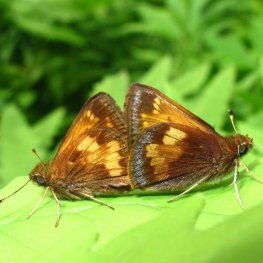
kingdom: Animalia
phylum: Arthropoda
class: Insecta
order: Lepidoptera
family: Hesperiidae
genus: Lon
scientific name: Lon hobomok
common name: Hobomok Skipper
